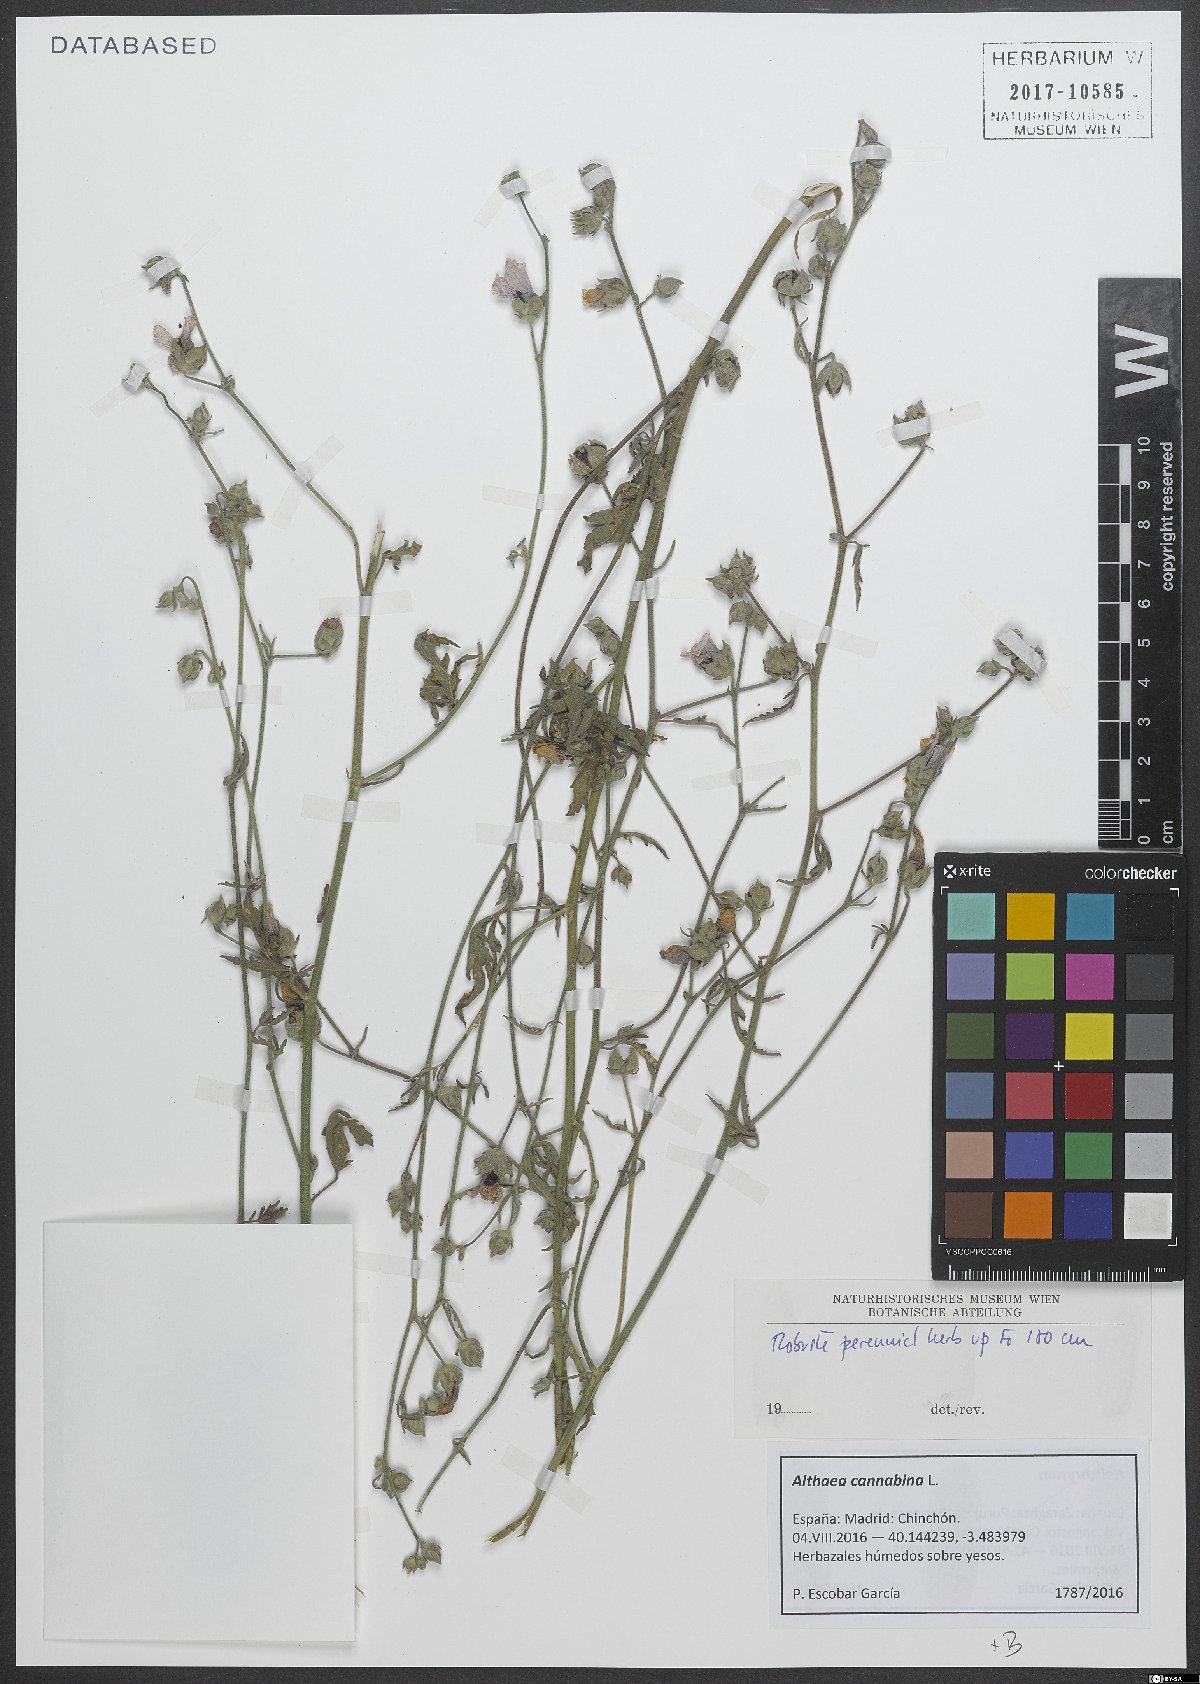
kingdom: Plantae
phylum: Tracheophyta
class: Magnoliopsida
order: Malvales
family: Malvaceae
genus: Althaea
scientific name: Althaea cannabina
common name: Palm-leaf marshmallow
